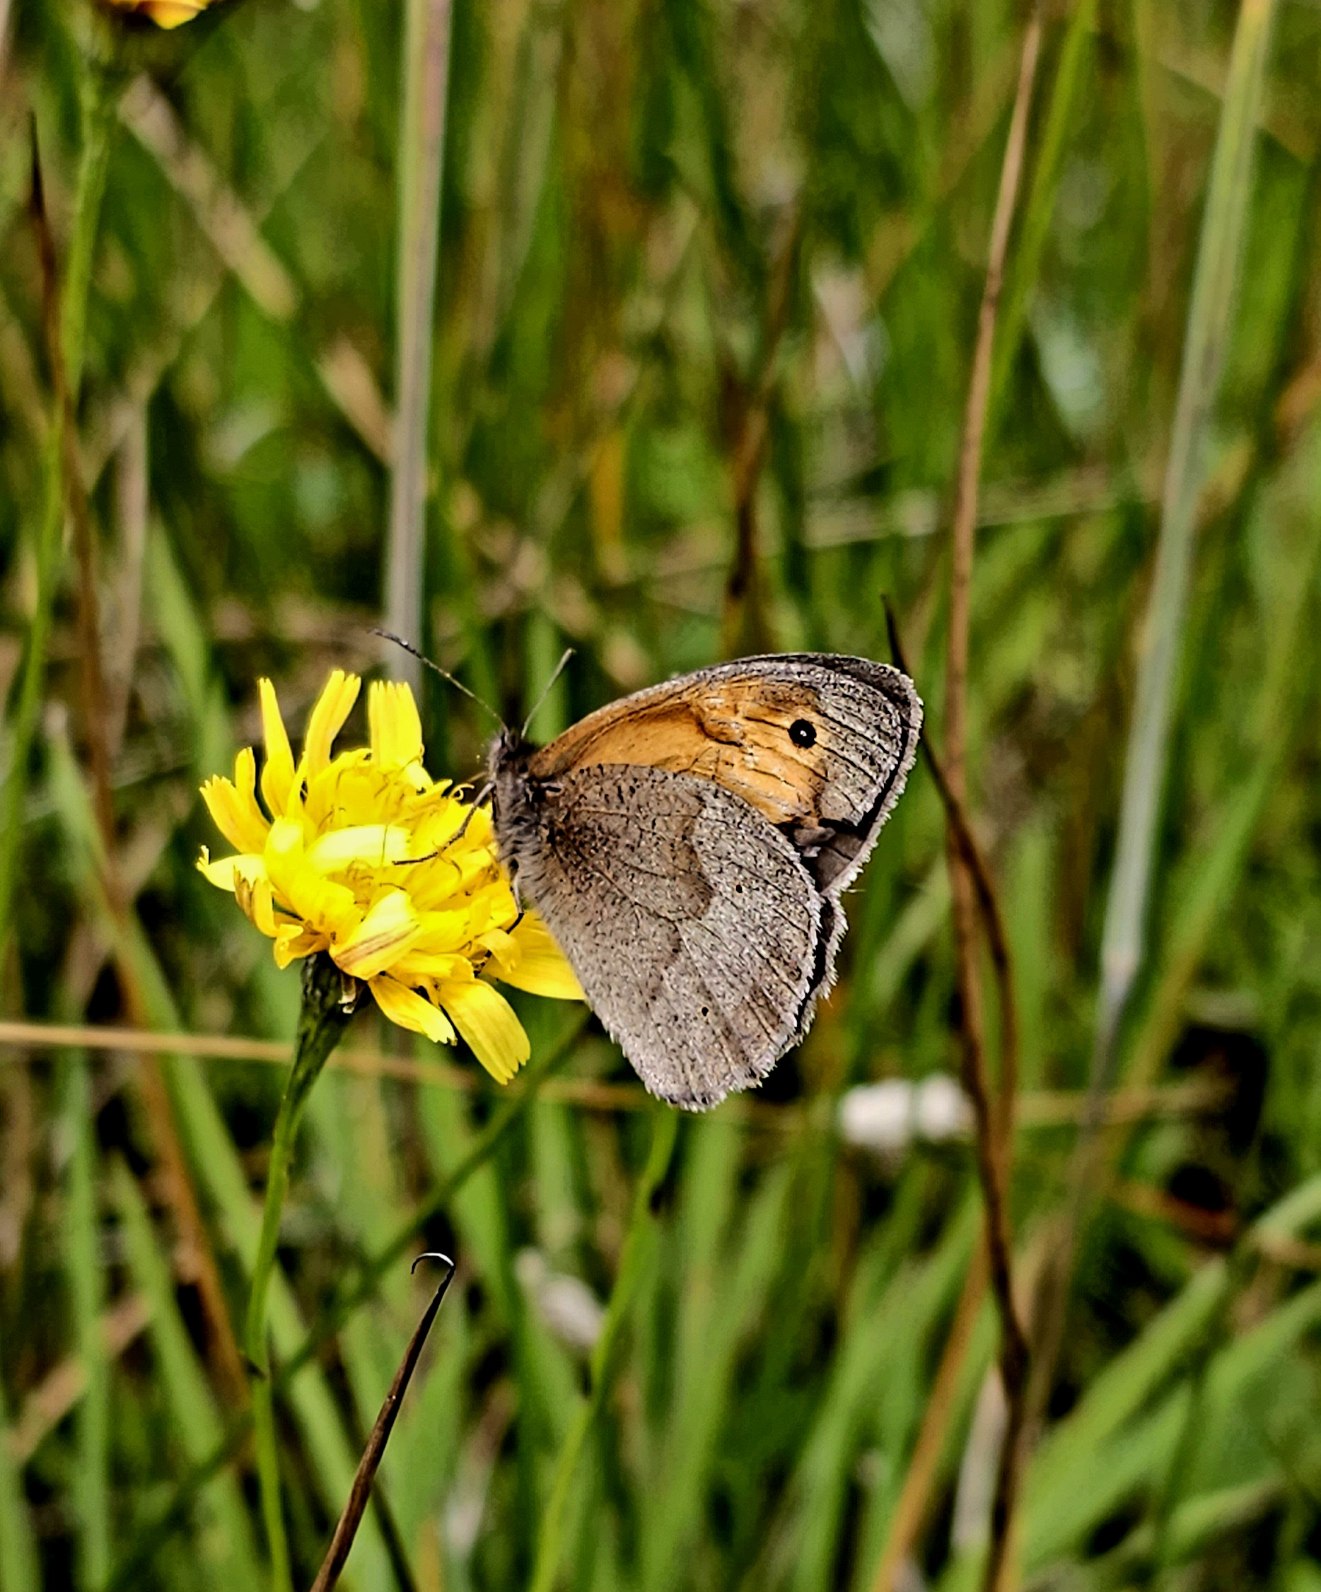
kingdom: Animalia
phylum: Arthropoda
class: Insecta
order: Lepidoptera
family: Nymphalidae
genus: Maniola
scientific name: Maniola jurtina
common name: Græsrandøje
